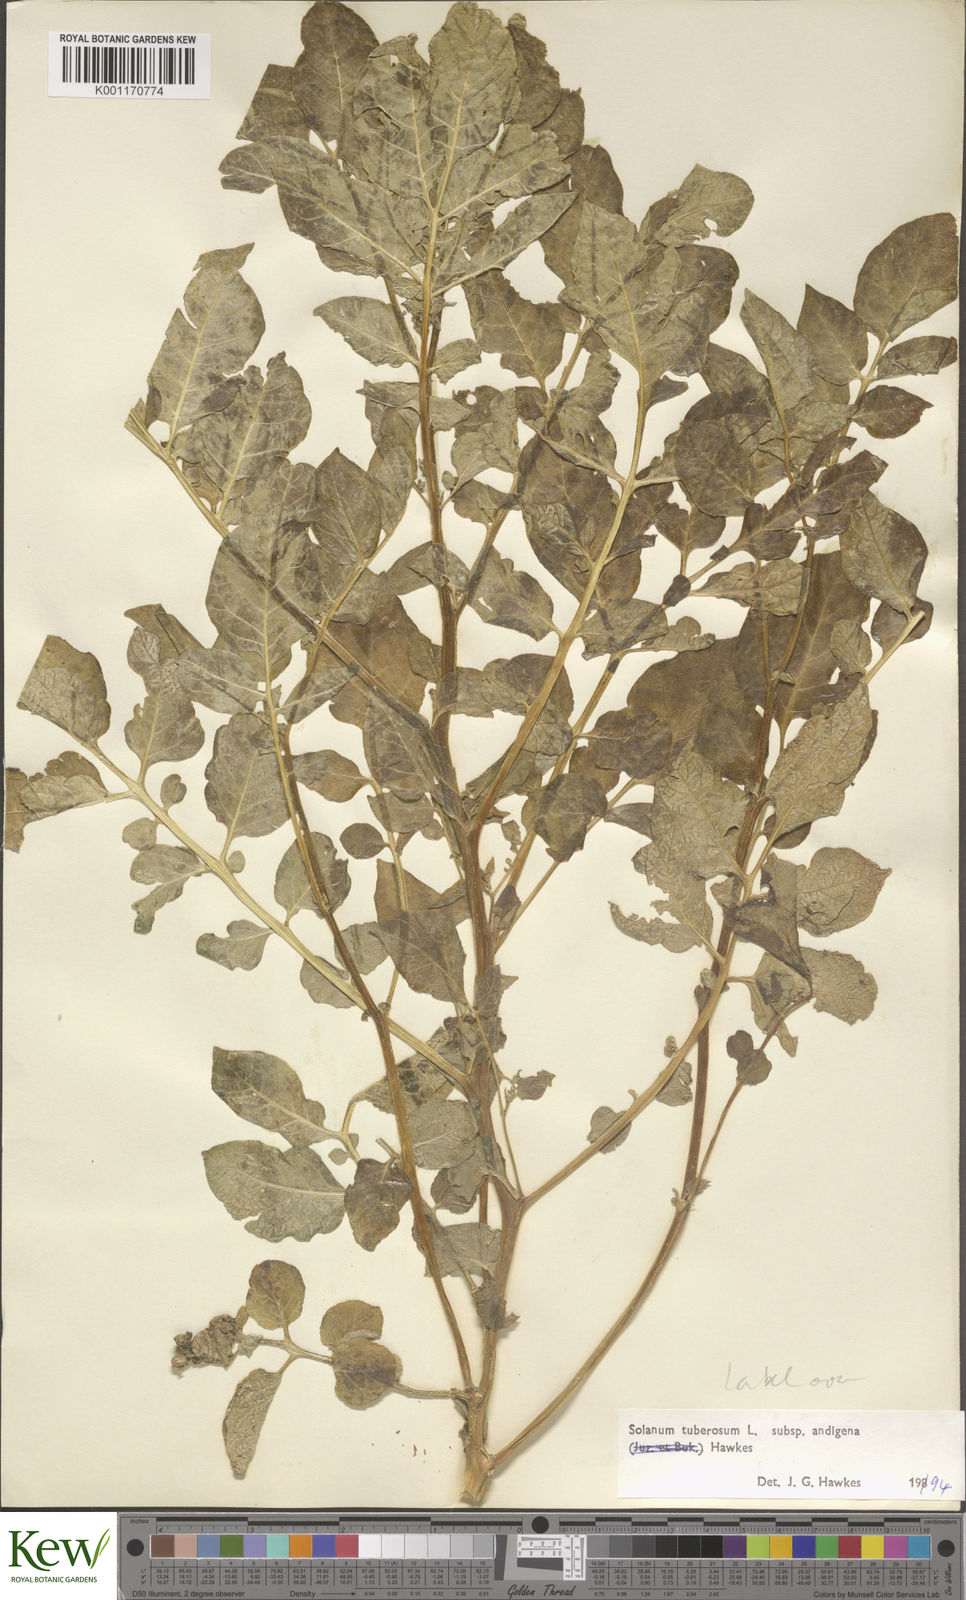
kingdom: Plantae
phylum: Tracheophyta
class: Magnoliopsida
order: Solanales
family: Solanaceae
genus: Solanum
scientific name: Solanum tuberosum
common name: Potato
